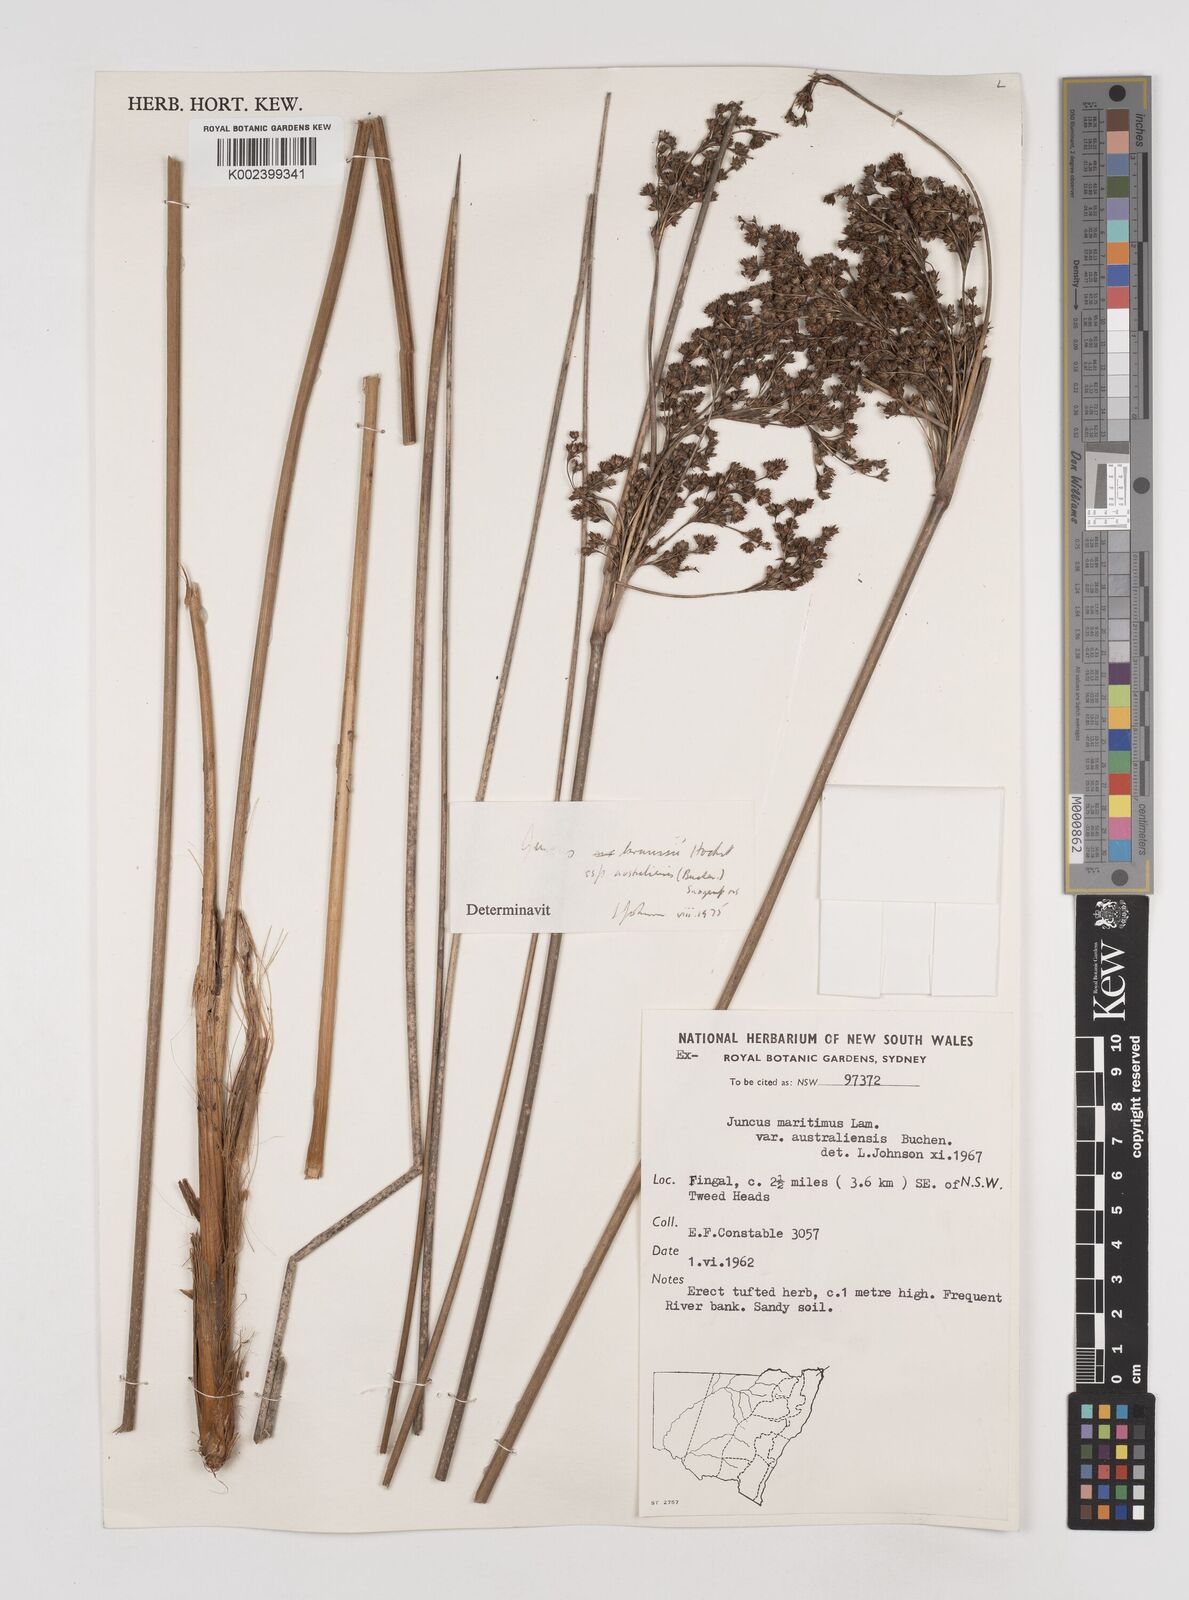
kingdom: Plantae
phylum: Tracheophyta
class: Liliopsida
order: Poales
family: Juncaceae
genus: Juncus
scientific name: Juncus kraussii
